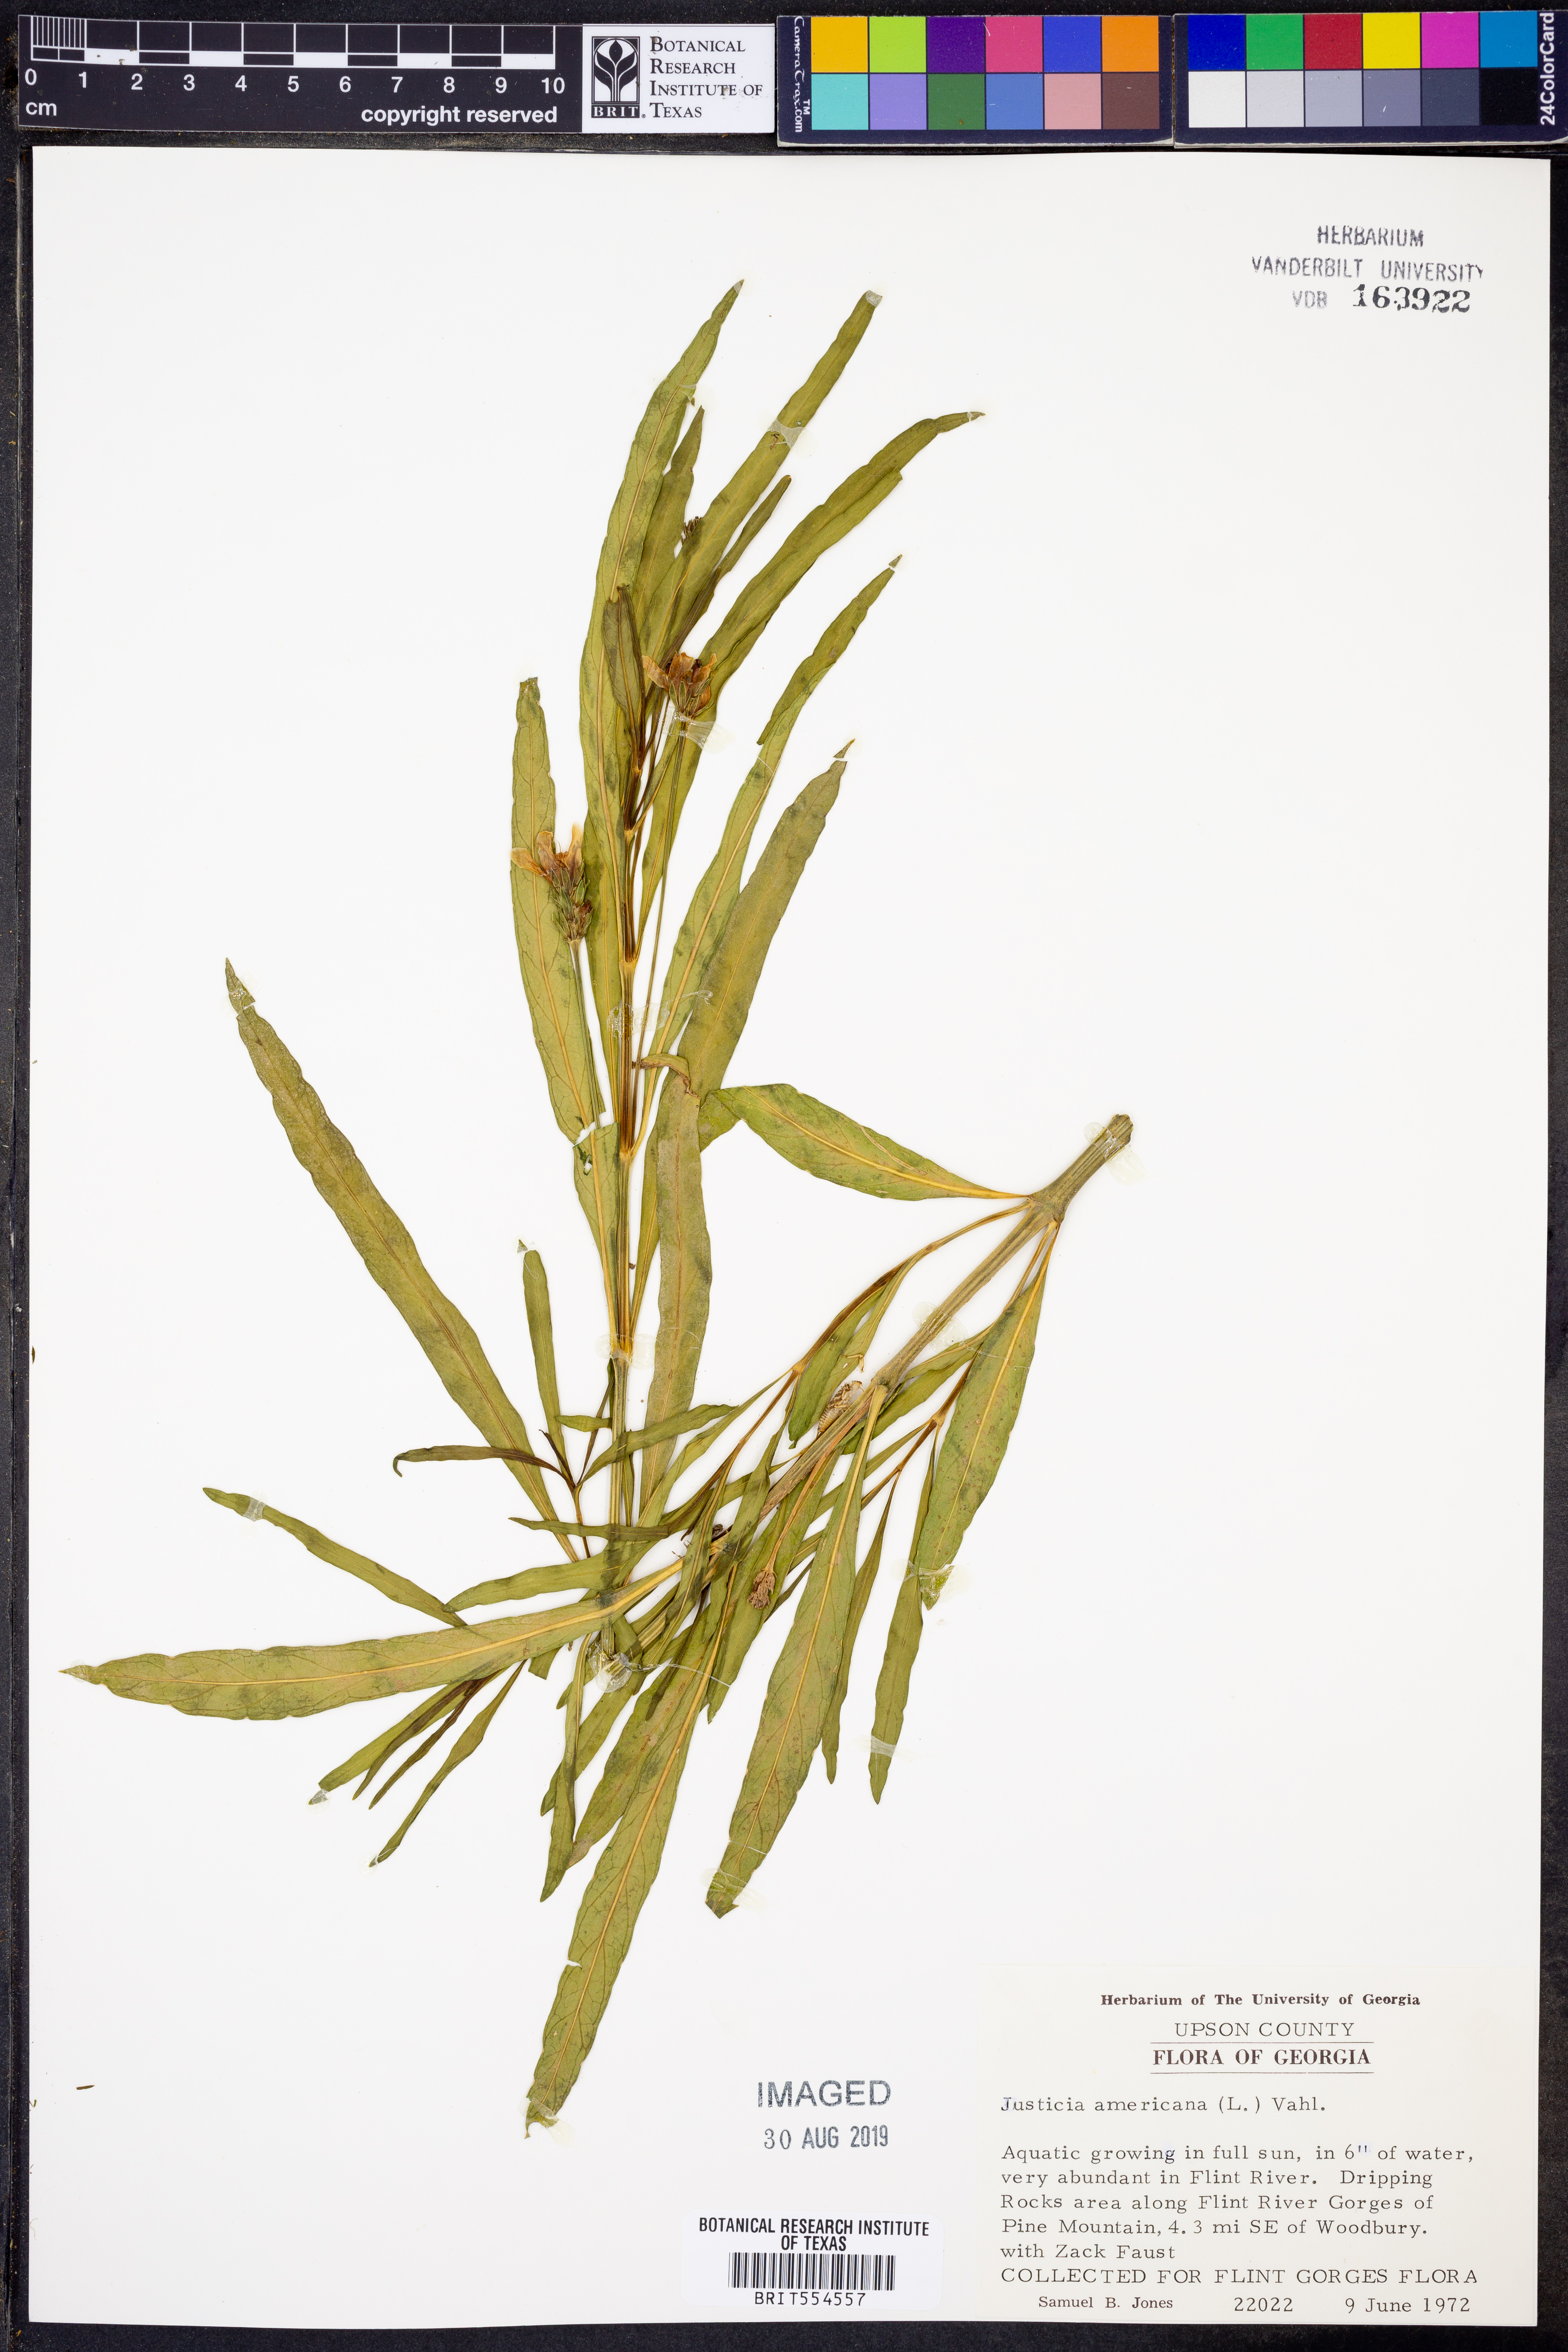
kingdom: Plantae
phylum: Tracheophyta
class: Magnoliopsida
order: Lamiales
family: Acanthaceae
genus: Dianthera
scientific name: Dianthera americana
